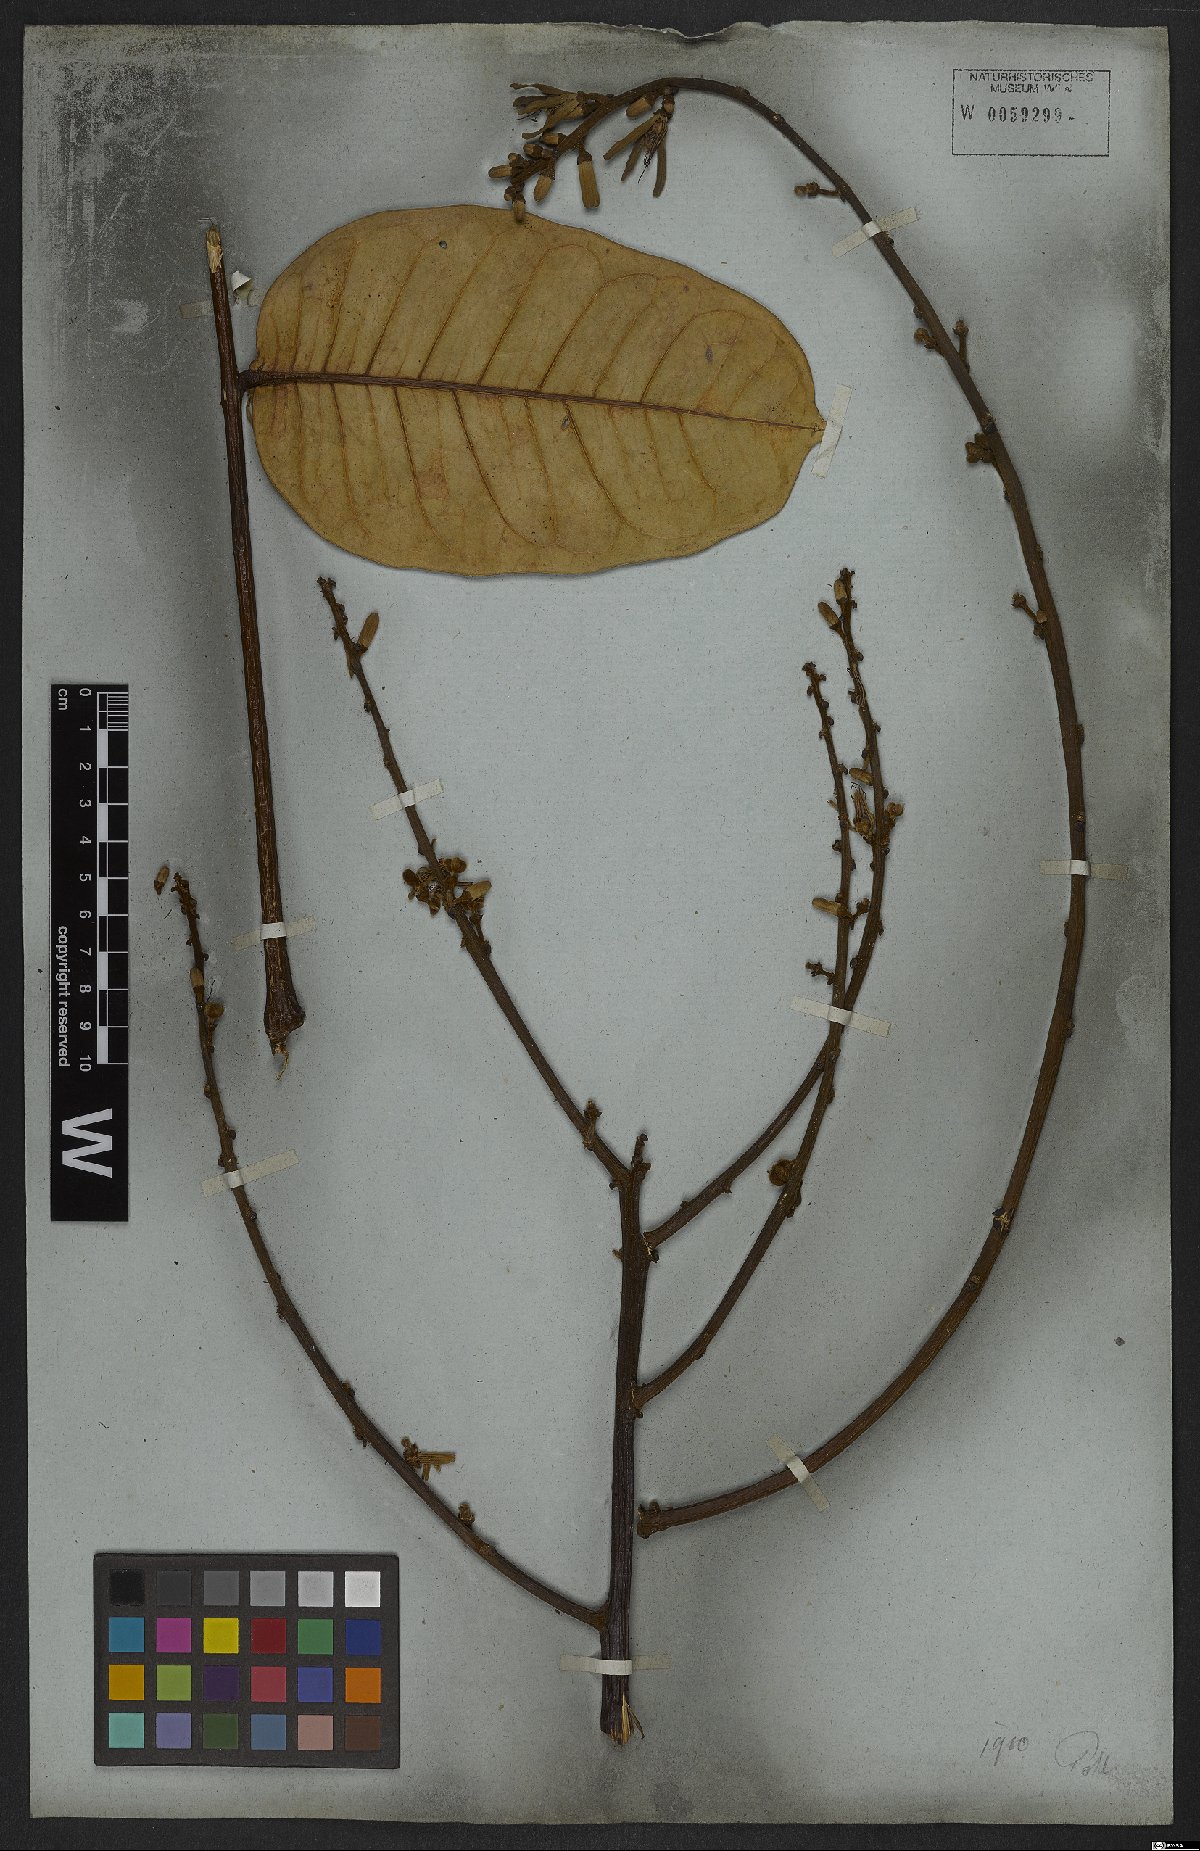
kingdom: Plantae
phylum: Tracheophyta
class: Magnoliopsida
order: Sapindales
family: Simaroubaceae
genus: Homalolepis
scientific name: Homalolepis maiana
